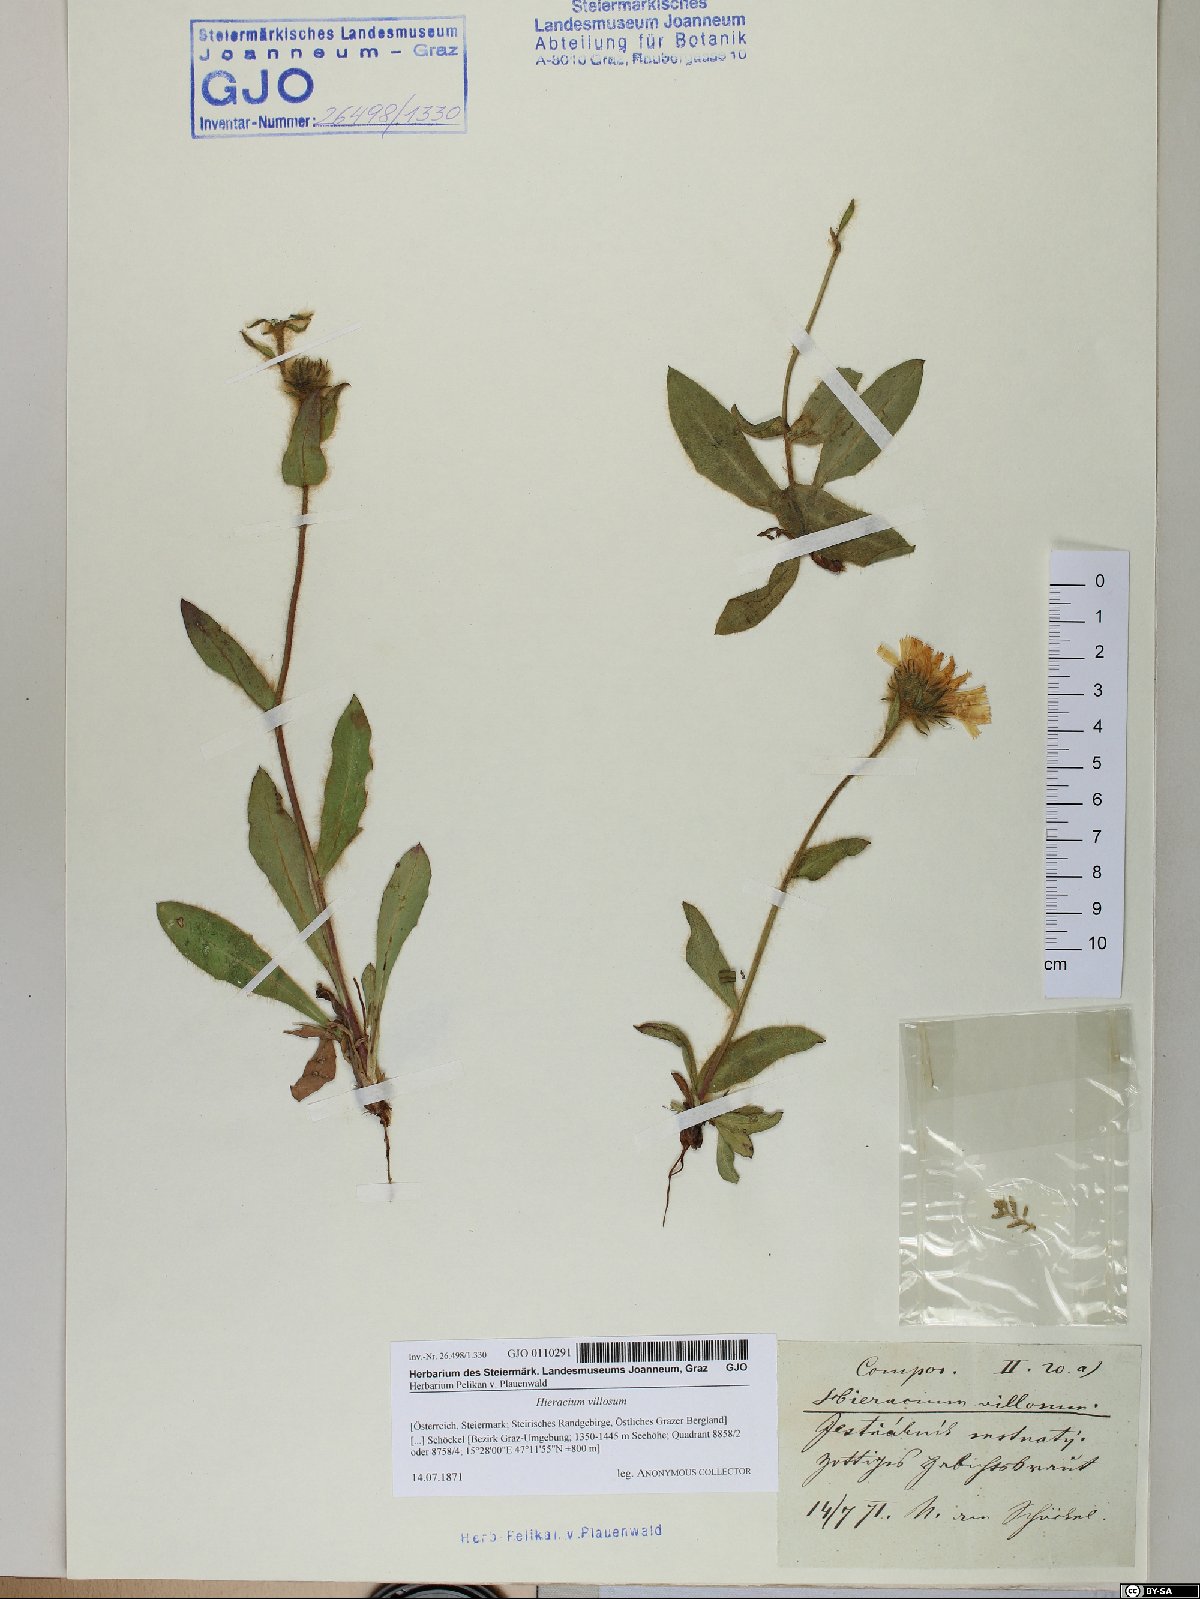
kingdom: Plantae
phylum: Tracheophyta
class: Magnoliopsida
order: Asterales
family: Asteraceae
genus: Hieracium
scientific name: Hieracium villosum
